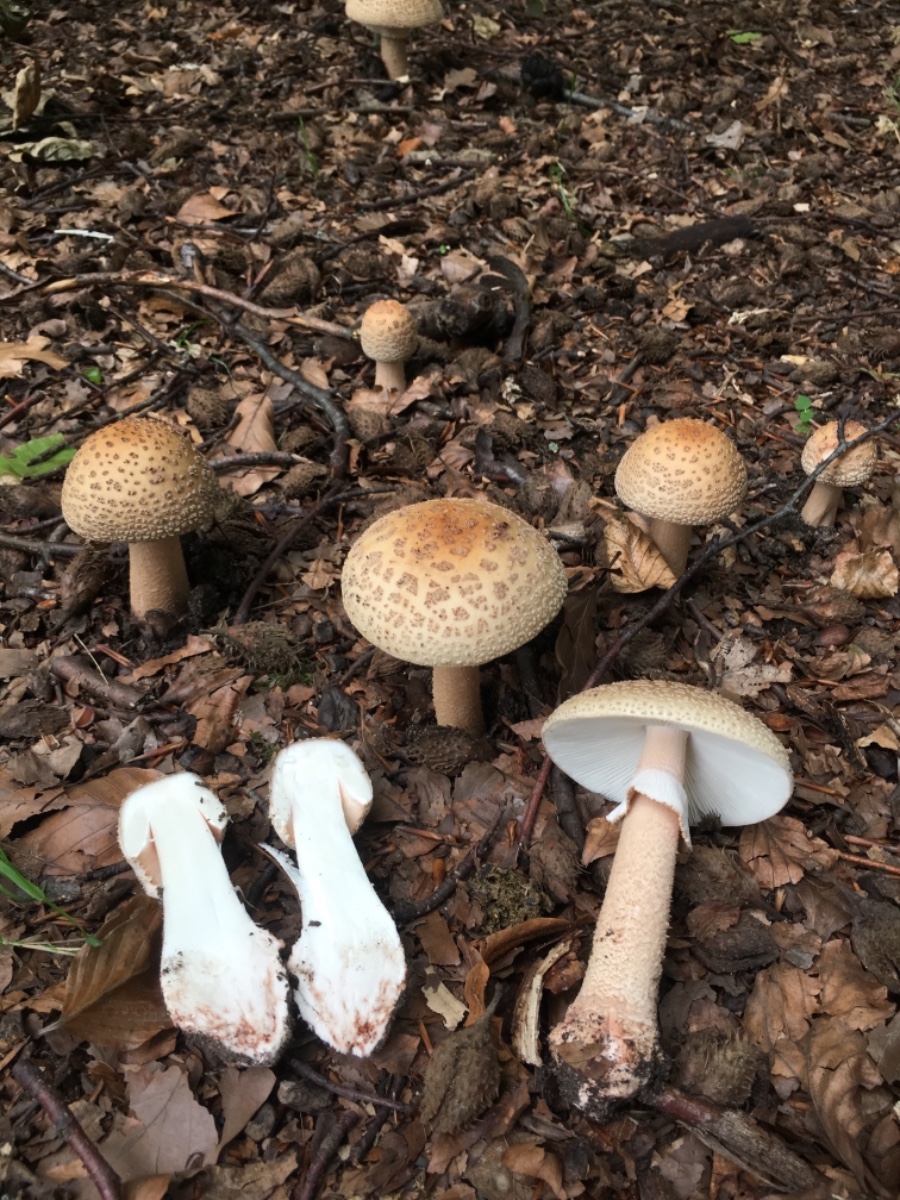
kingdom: Fungi
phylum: Basidiomycota
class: Agaricomycetes
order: Agaricales
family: Amanitaceae
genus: Amanita
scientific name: Amanita rubescens
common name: rødmende fluesvamp
